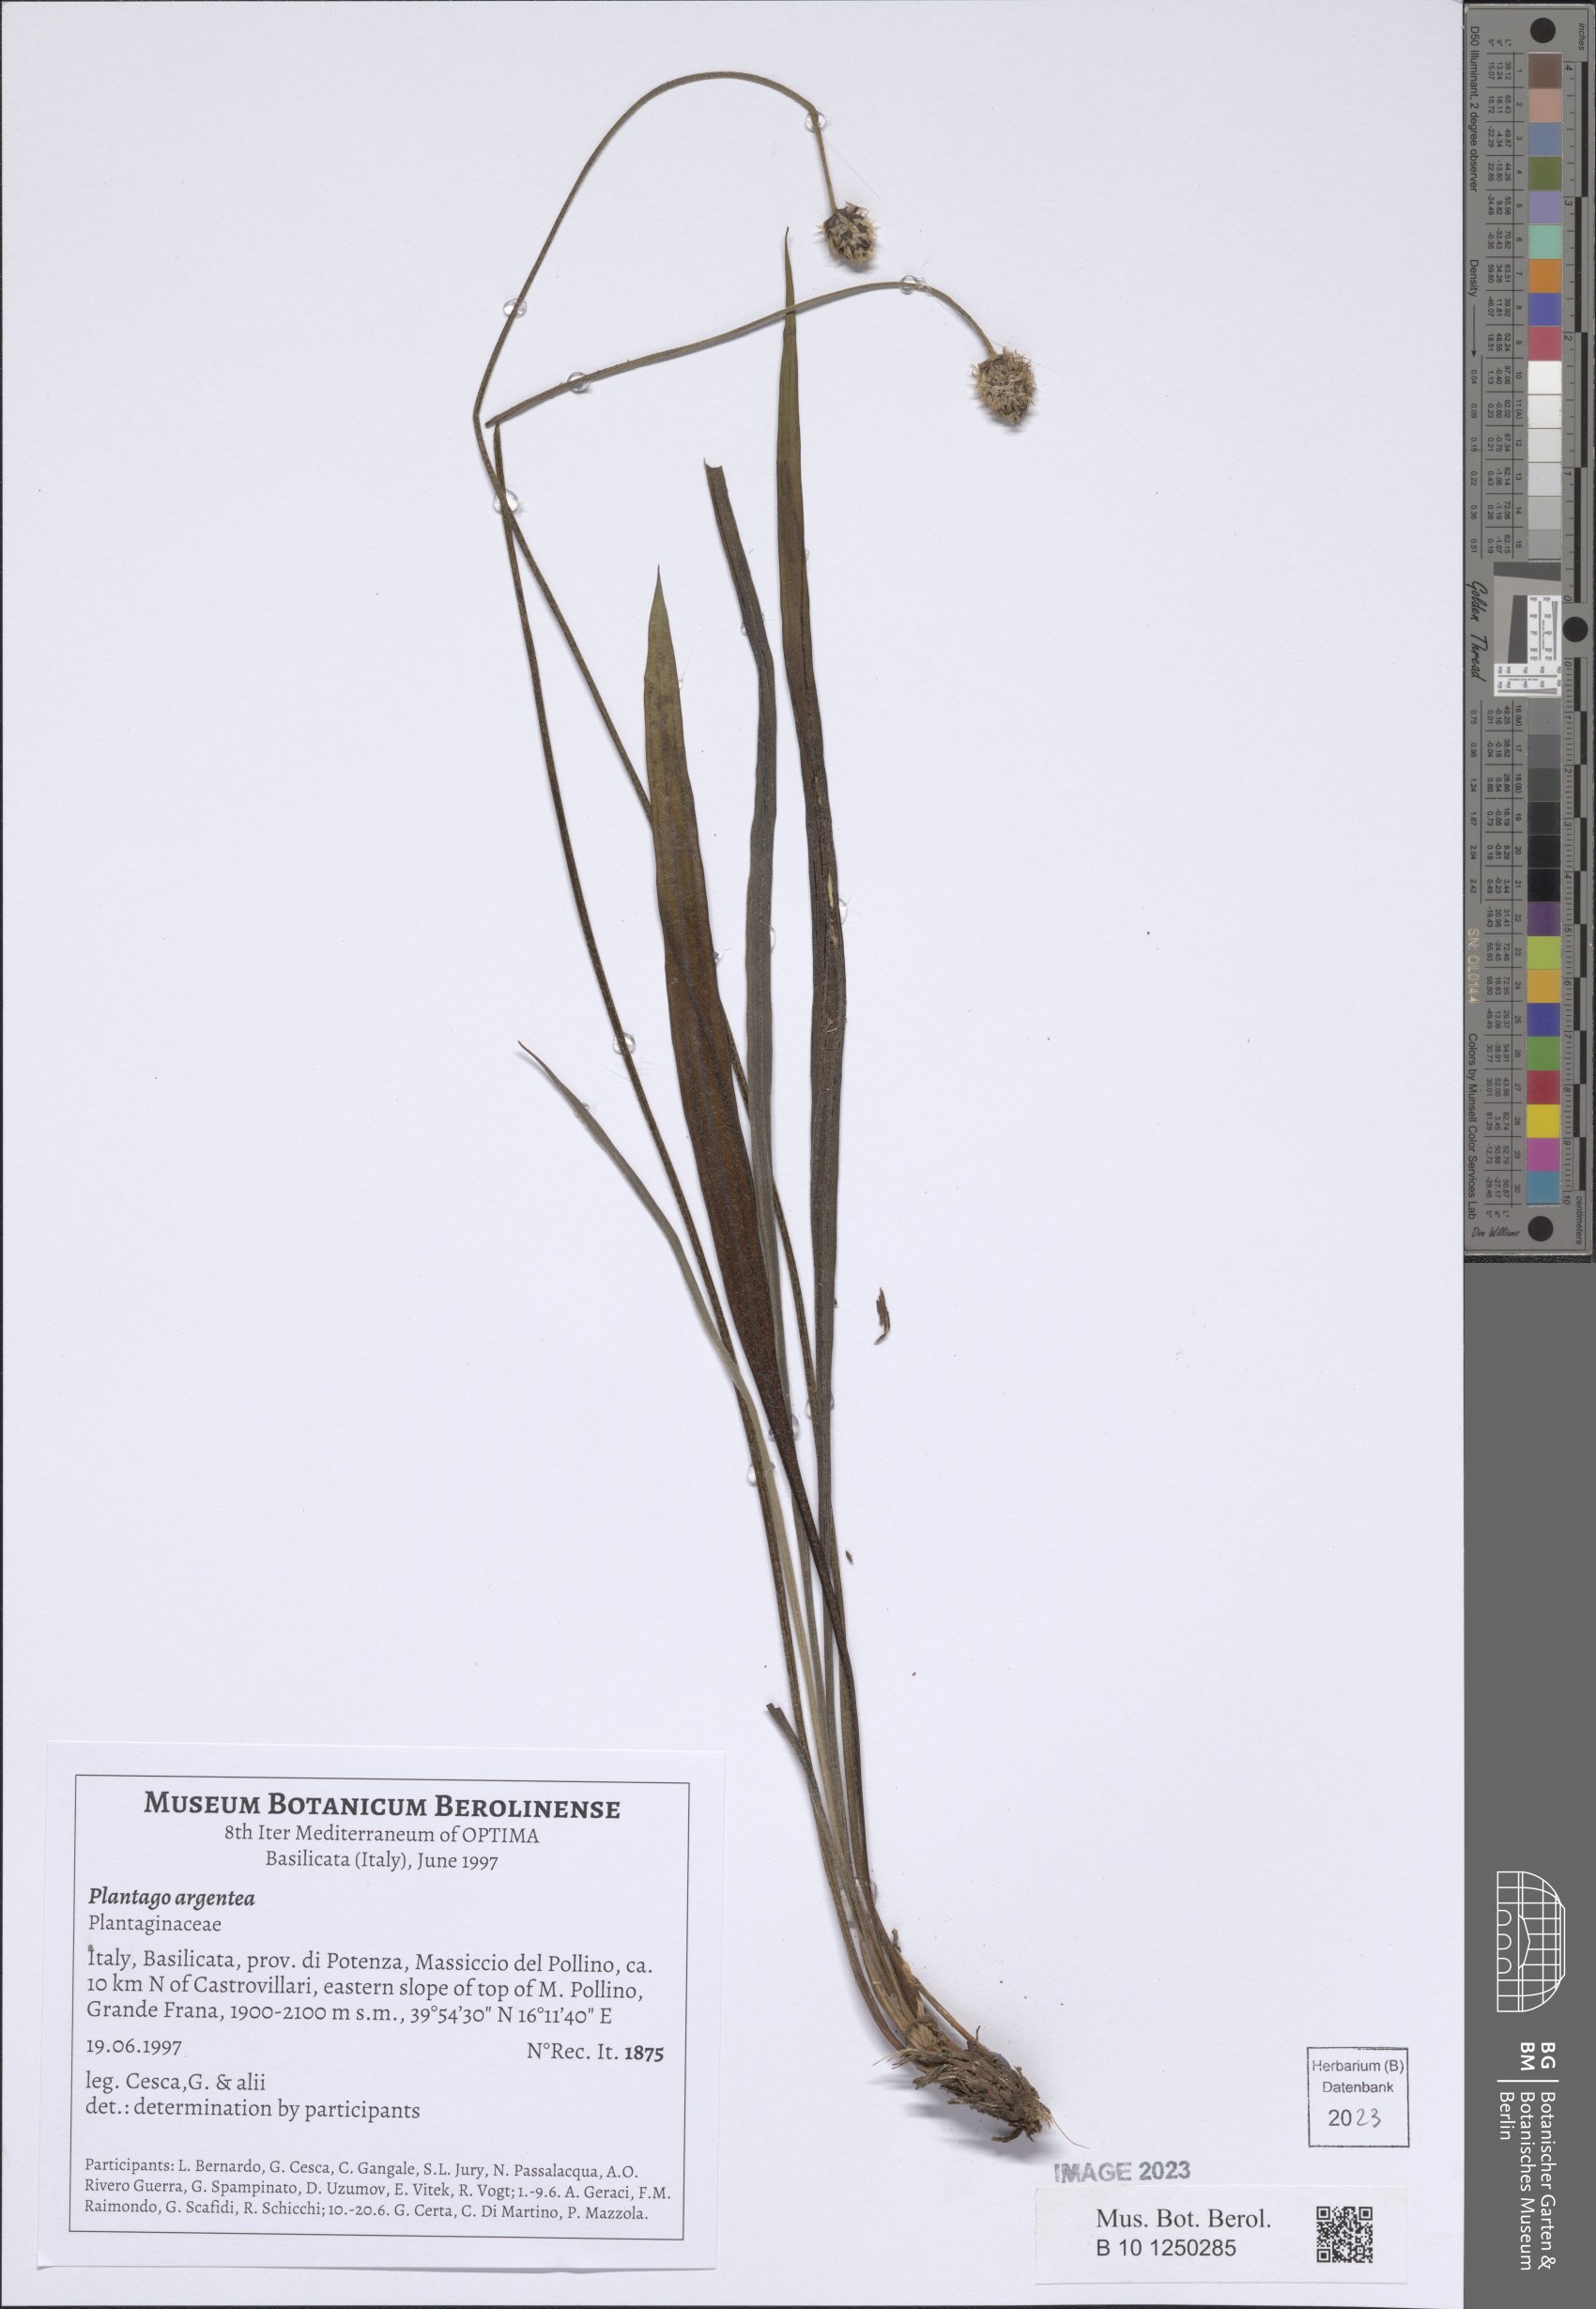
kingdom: Plantae
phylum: Tracheophyta
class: Magnoliopsida
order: Lamiales
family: Plantaginaceae
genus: Plantago
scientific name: Plantago argentea
